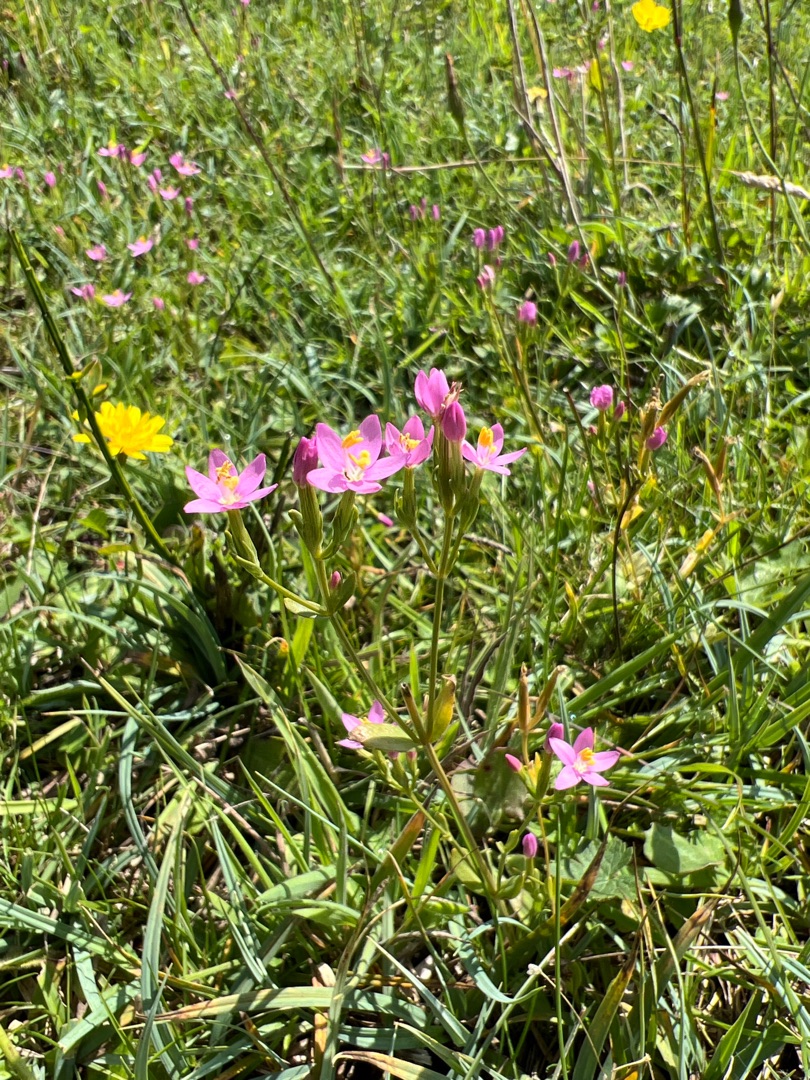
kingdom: Plantae
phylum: Tracheophyta
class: Magnoliopsida
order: Gentianales
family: Gentianaceae
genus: Centaurium
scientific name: Centaurium erythraea
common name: Mark-tusindgylden
